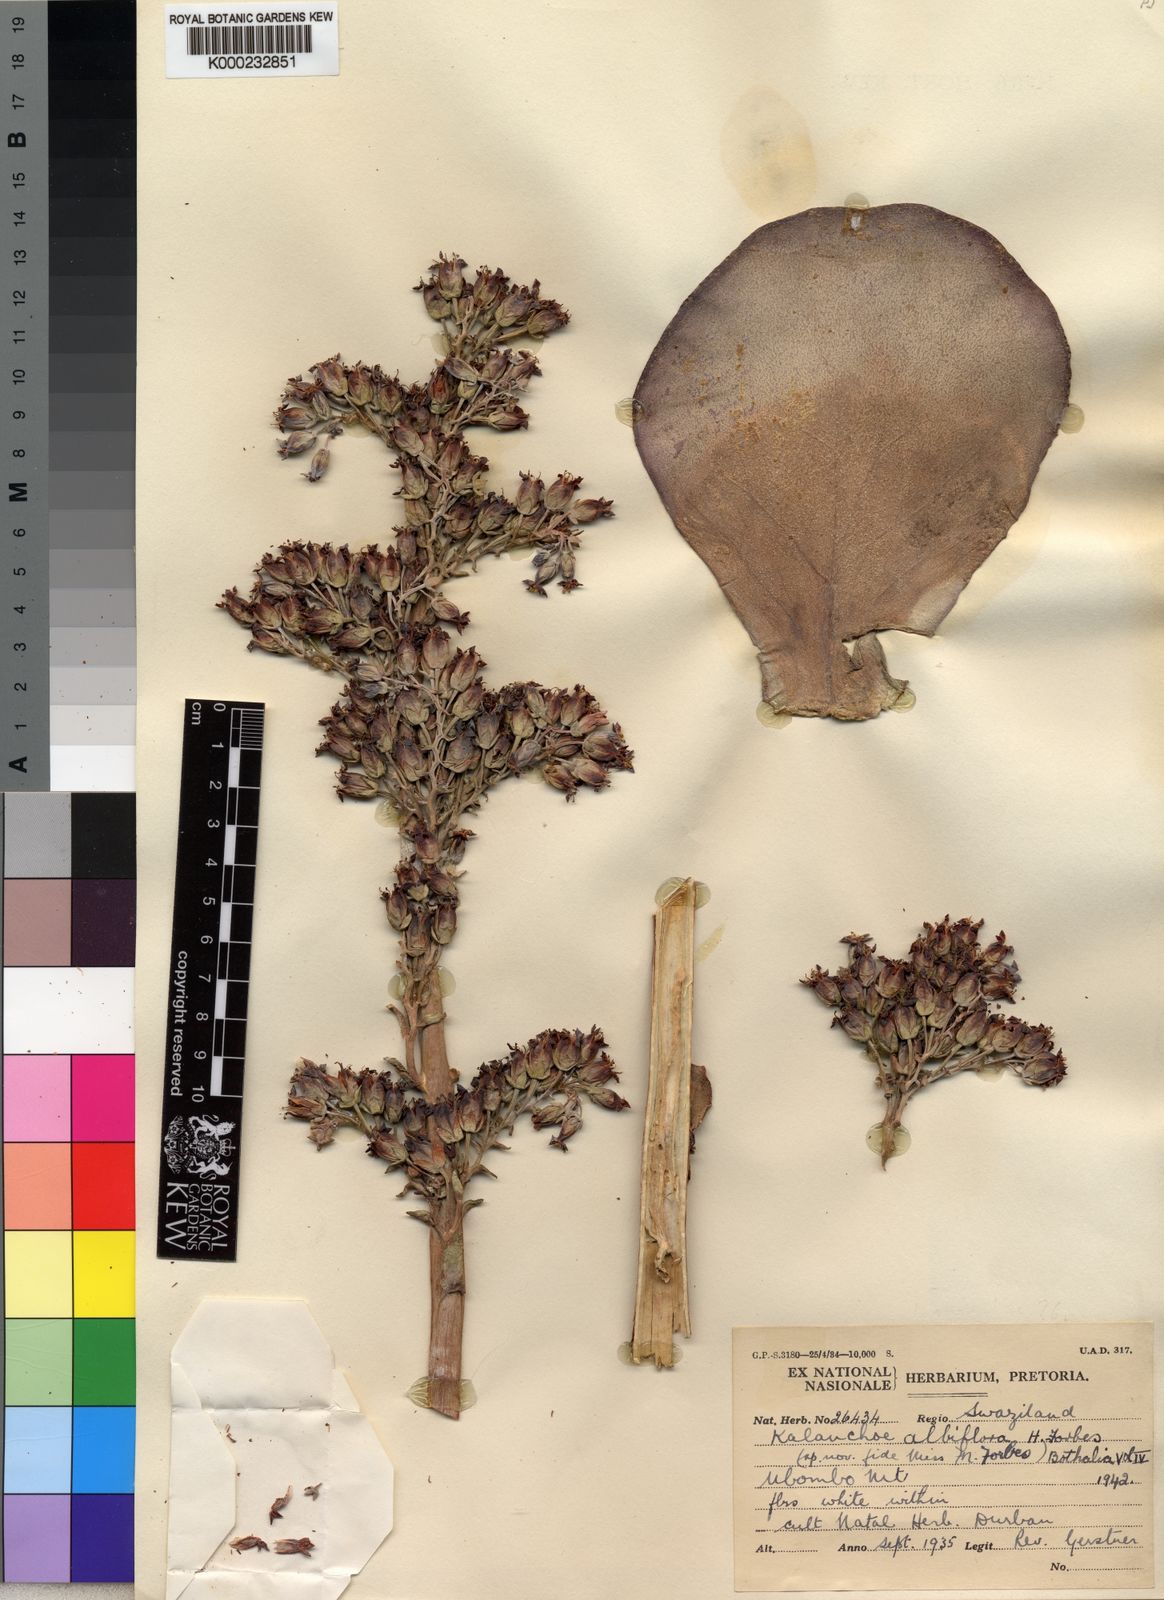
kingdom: Plantae
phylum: Tracheophyta
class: Magnoliopsida
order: Saxifragales
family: Crassulaceae
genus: Kalanchoe
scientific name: Kalanchoe luciae
